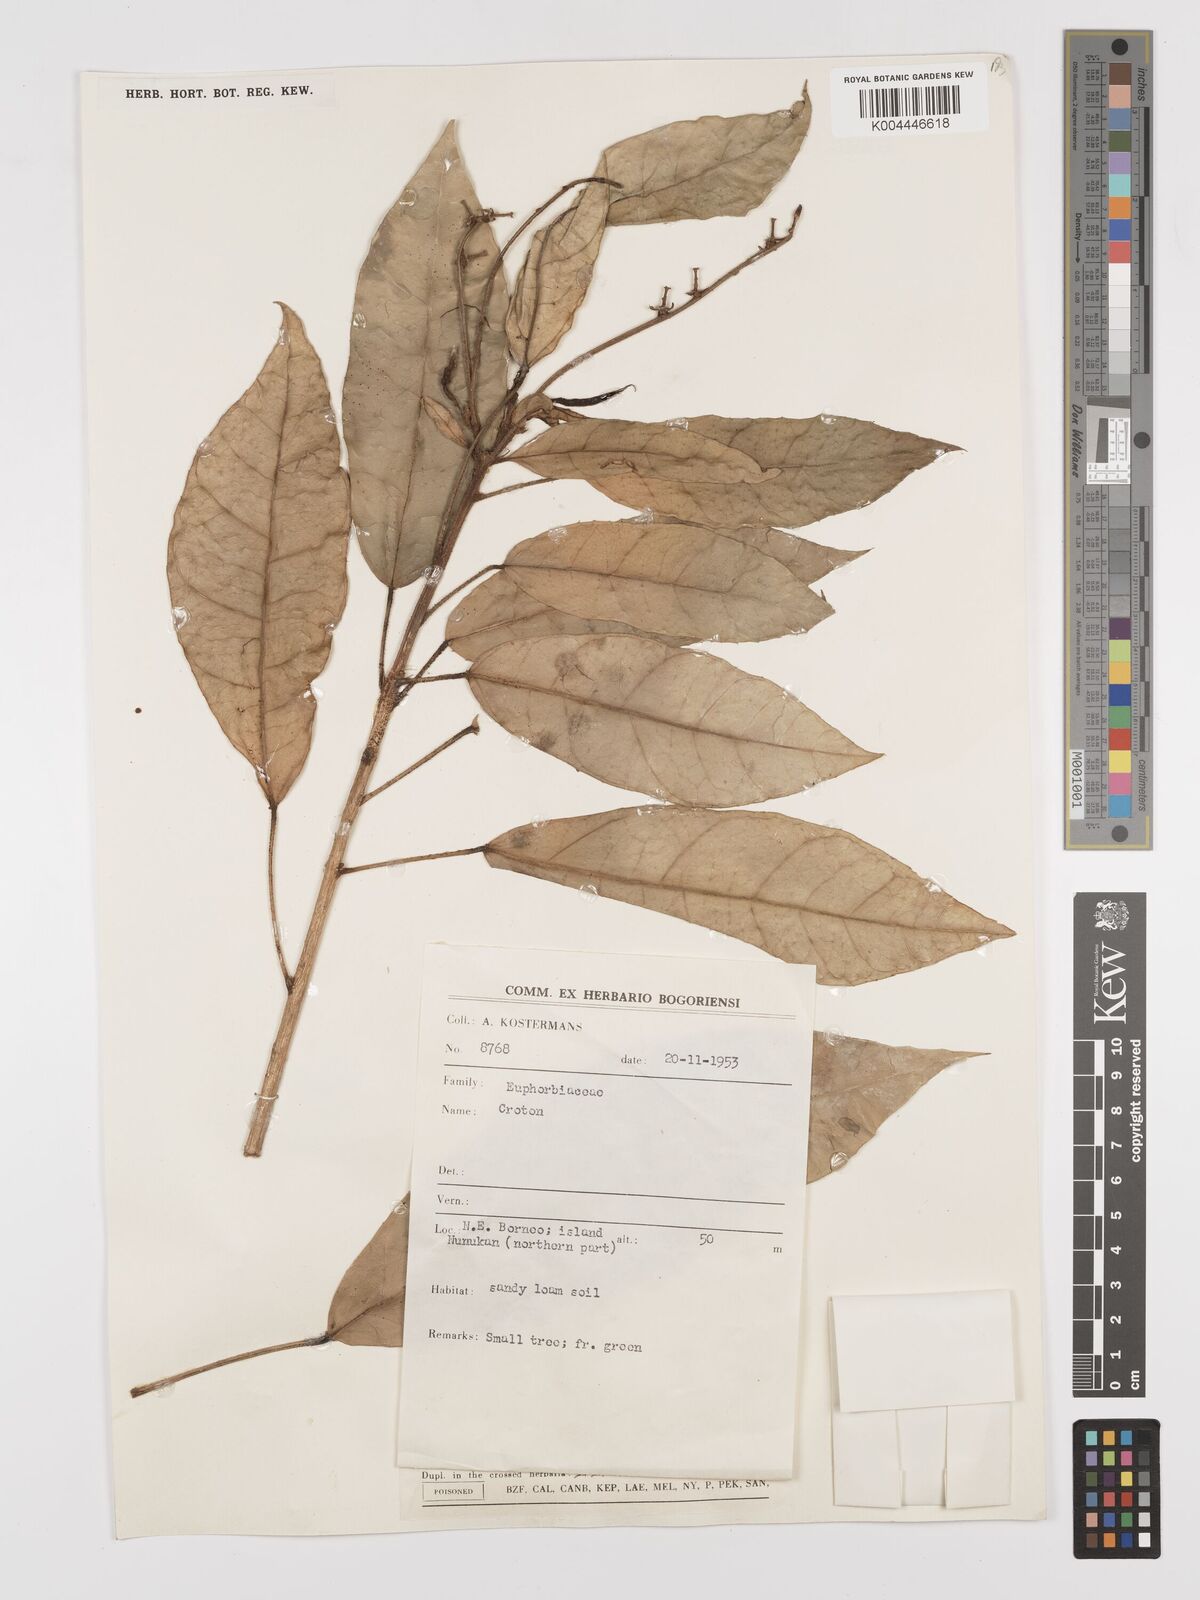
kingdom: Plantae
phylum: Tracheophyta
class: Magnoliopsida
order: Malpighiales
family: Euphorbiaceae
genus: Croton
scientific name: Croton borneensis
